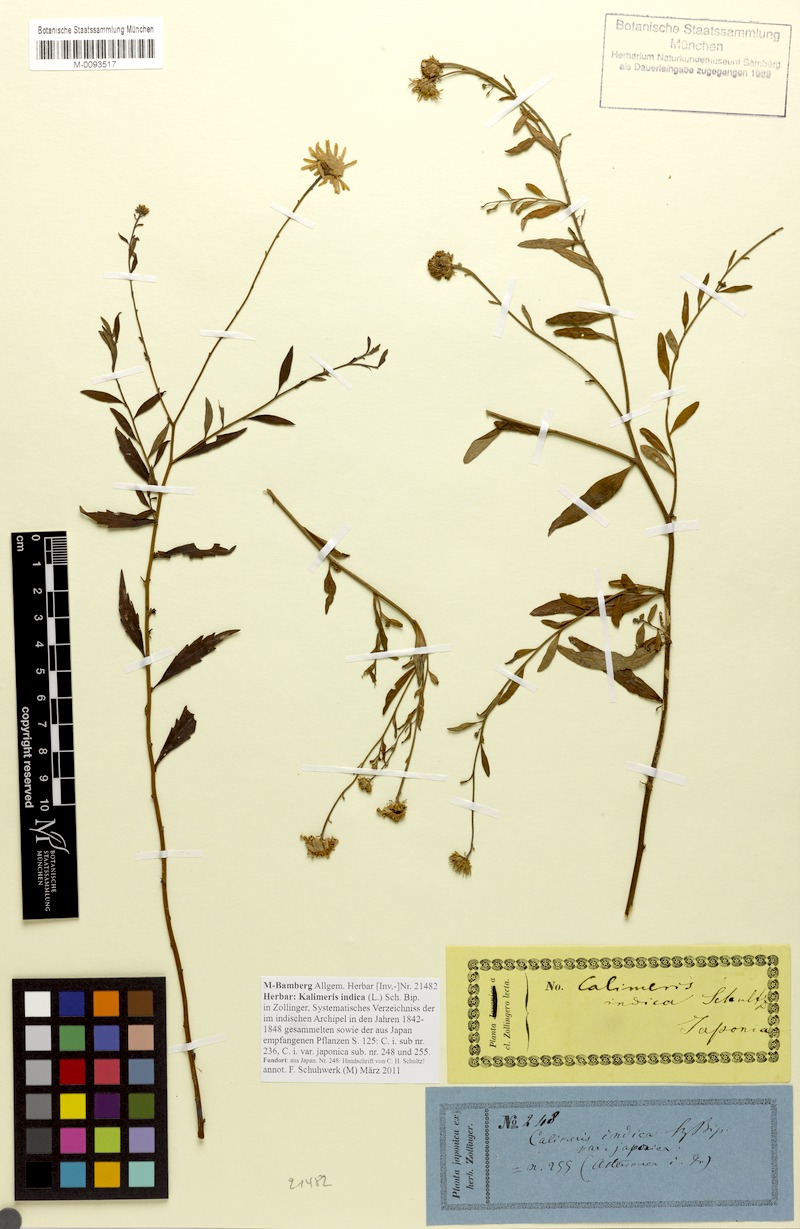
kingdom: Plantae
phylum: Tracheophyta
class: Magnoliopsida
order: Asterales
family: Asteraceae
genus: Kalimeris
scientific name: Kalimeris indica
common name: Indian aster
